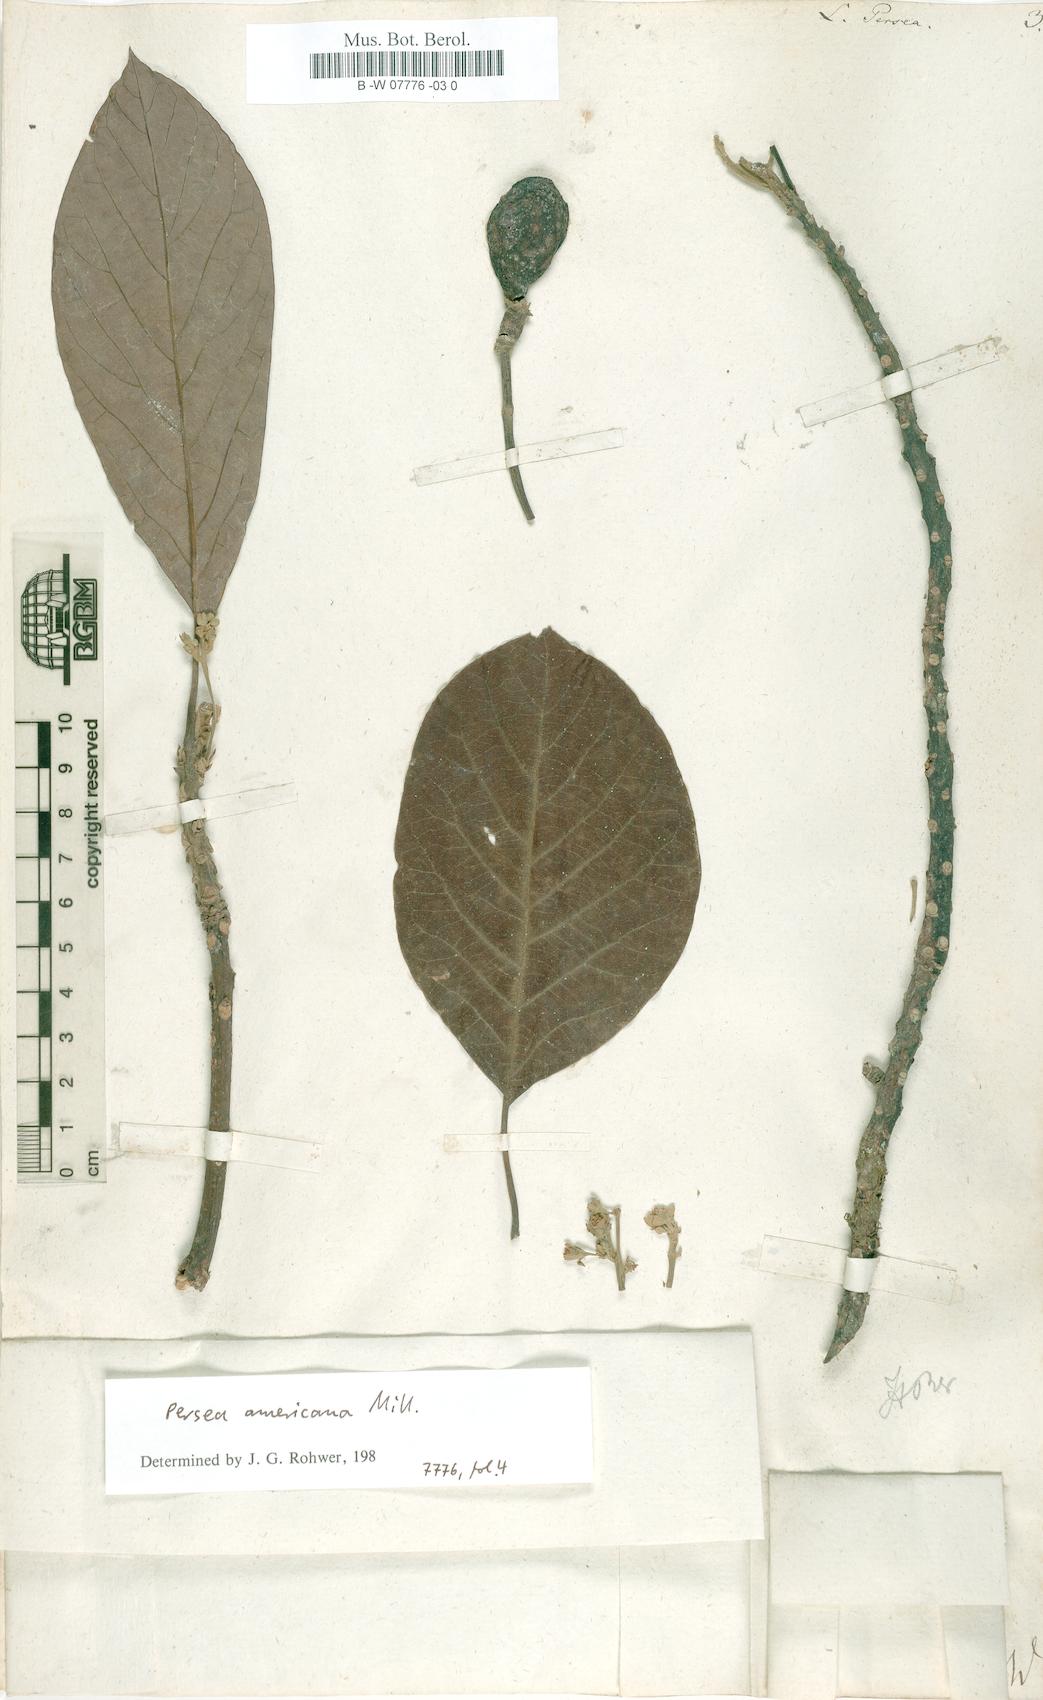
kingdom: Plantae
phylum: Tracheophyta
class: Magnoliopsida
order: Laurales
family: Lauraceae
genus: Persea
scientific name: Persea americana
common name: Avocado
